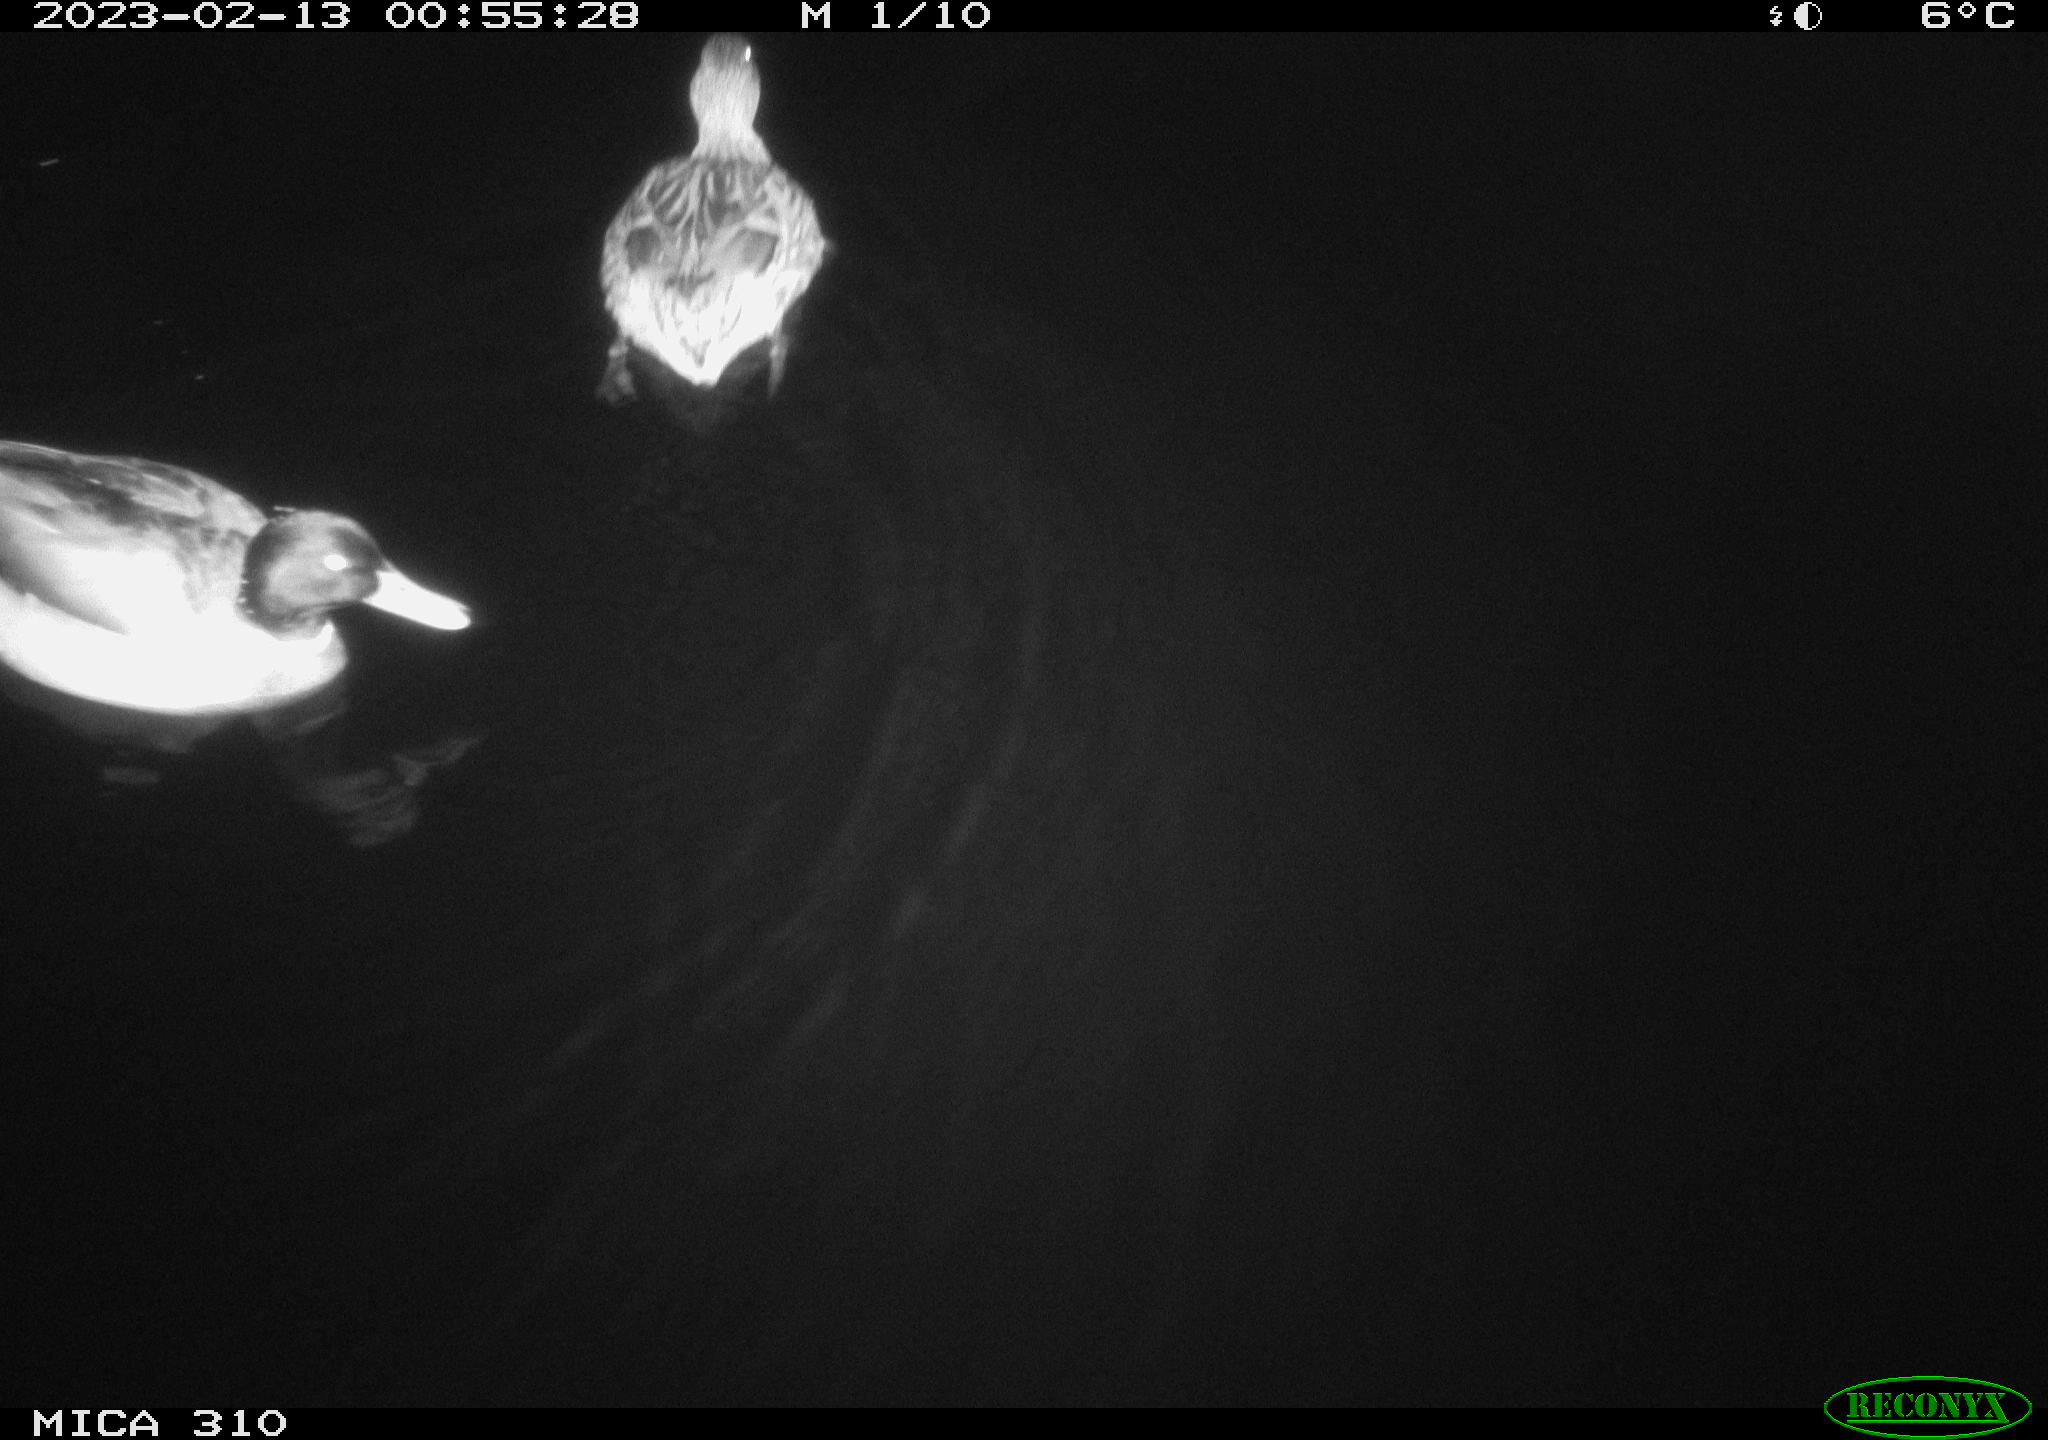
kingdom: Animalia
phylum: Chordata
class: Aves
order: Anseriformes
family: Anatidae
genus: Anas
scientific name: Anas
